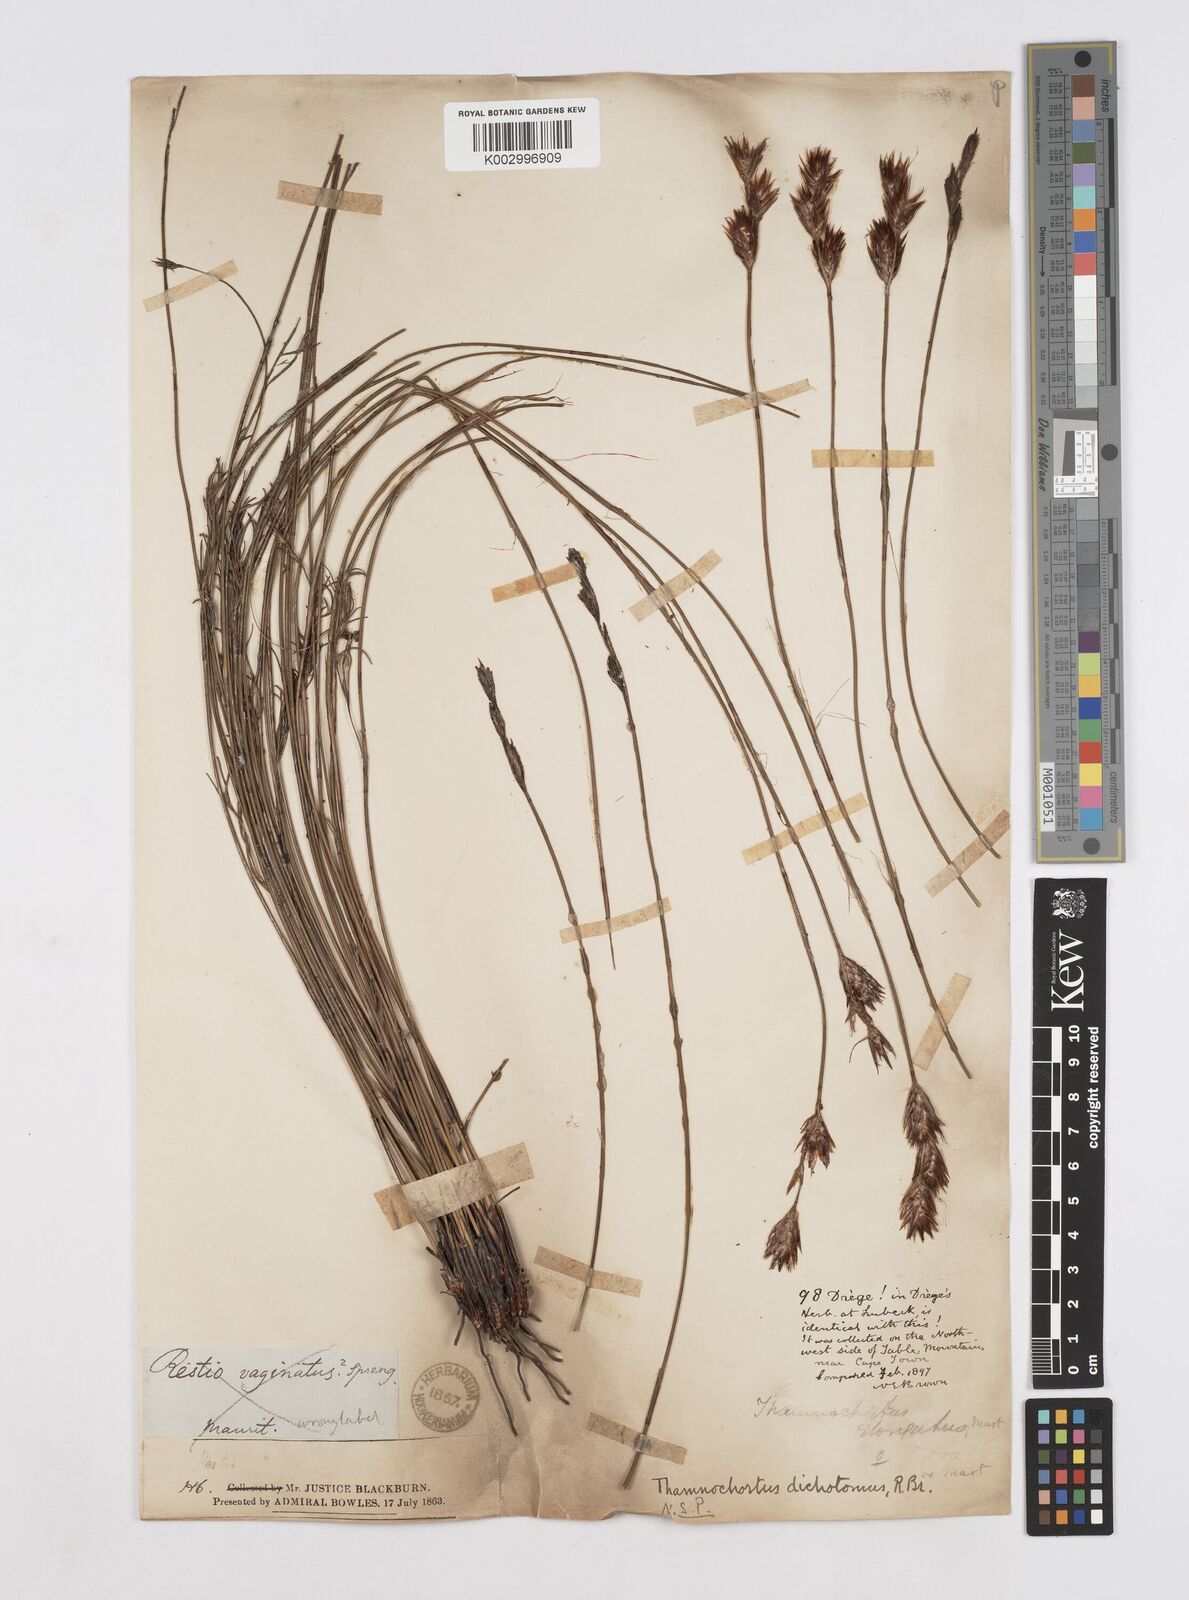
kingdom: Plantae
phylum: Tracheophyta
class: Liliopsida
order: Poales
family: Restionaceae
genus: Thamnochortus
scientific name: Thamnochortus lucens
